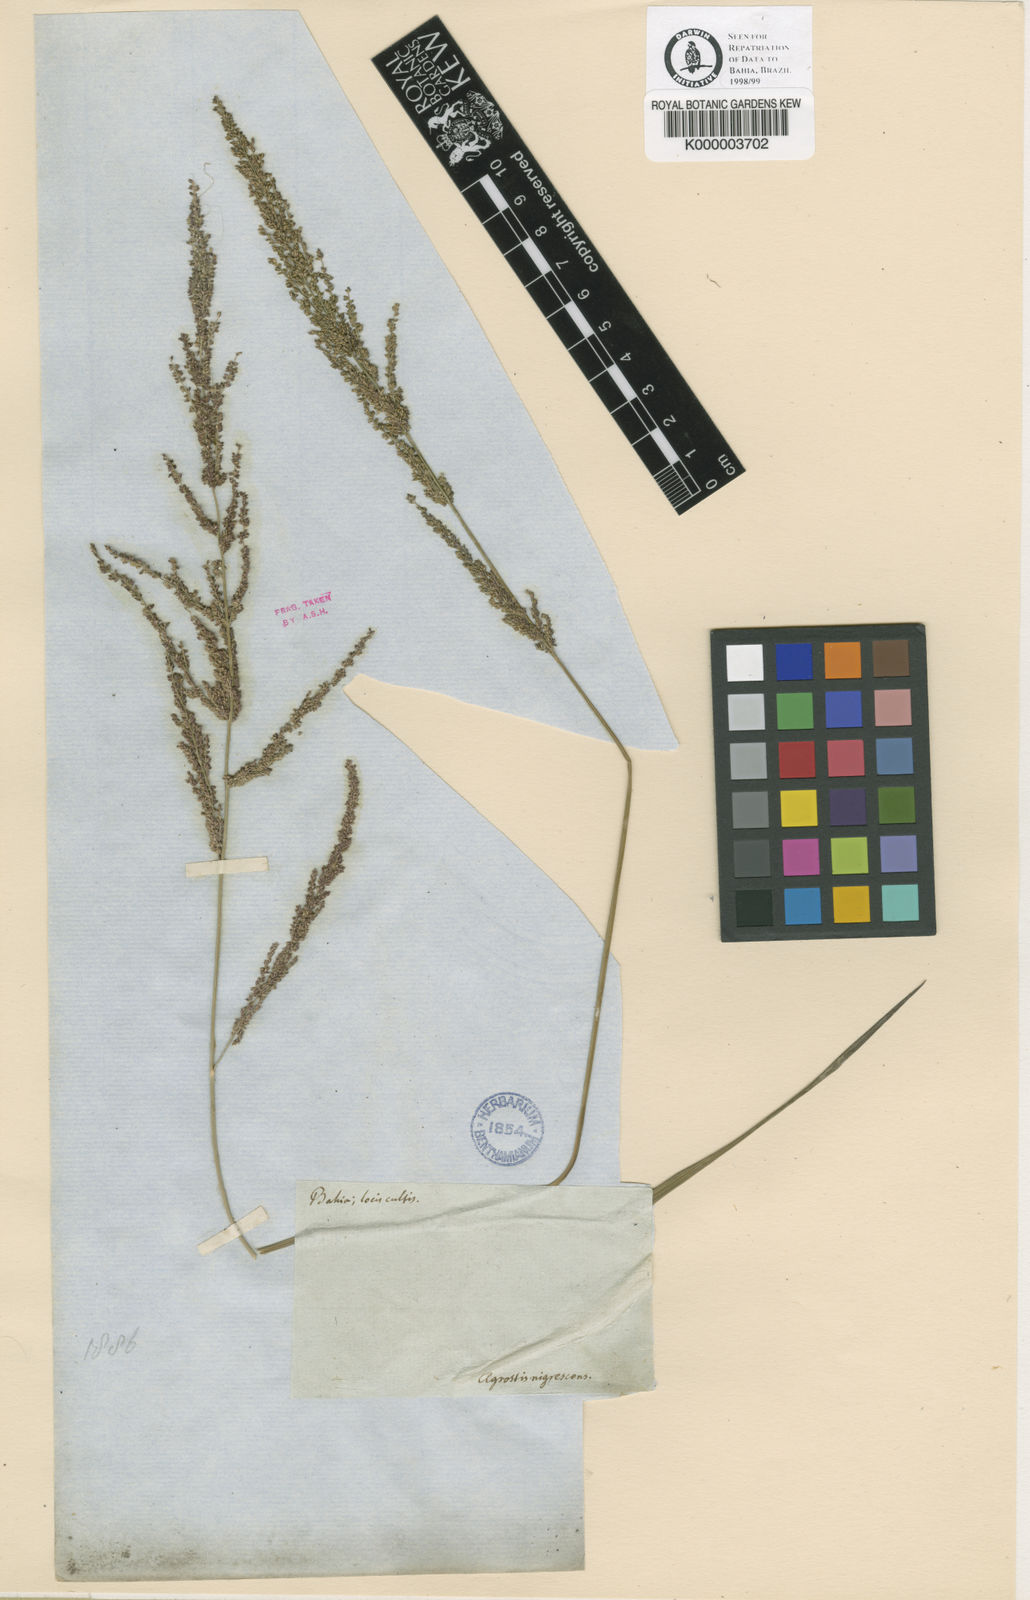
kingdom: Plantae
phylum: Tracheophyta
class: Liliopsida
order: Poales
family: Poaceae
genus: Panicum
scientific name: Panicum
